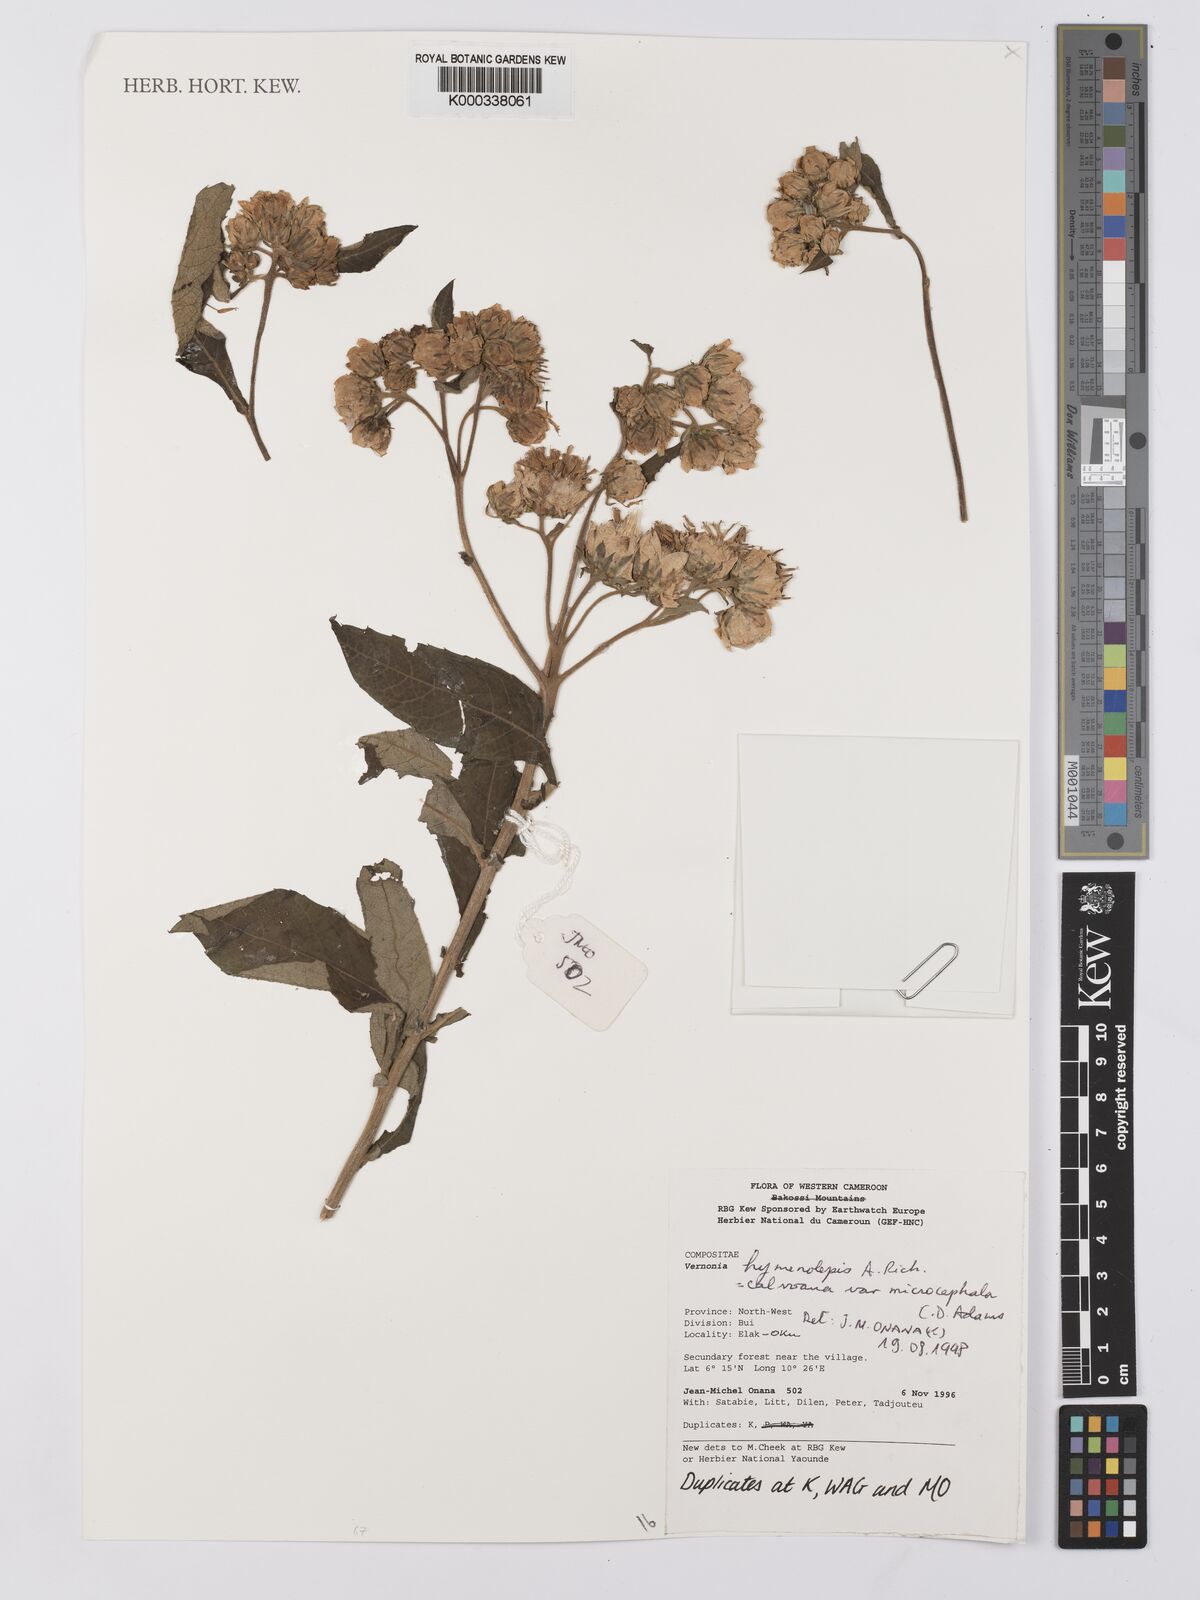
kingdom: Plantae
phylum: Tracheophyta
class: Magnoliopsida
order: Asterales
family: Asteraceae
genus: Baccharoides
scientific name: Baccharoides hymenolepis
